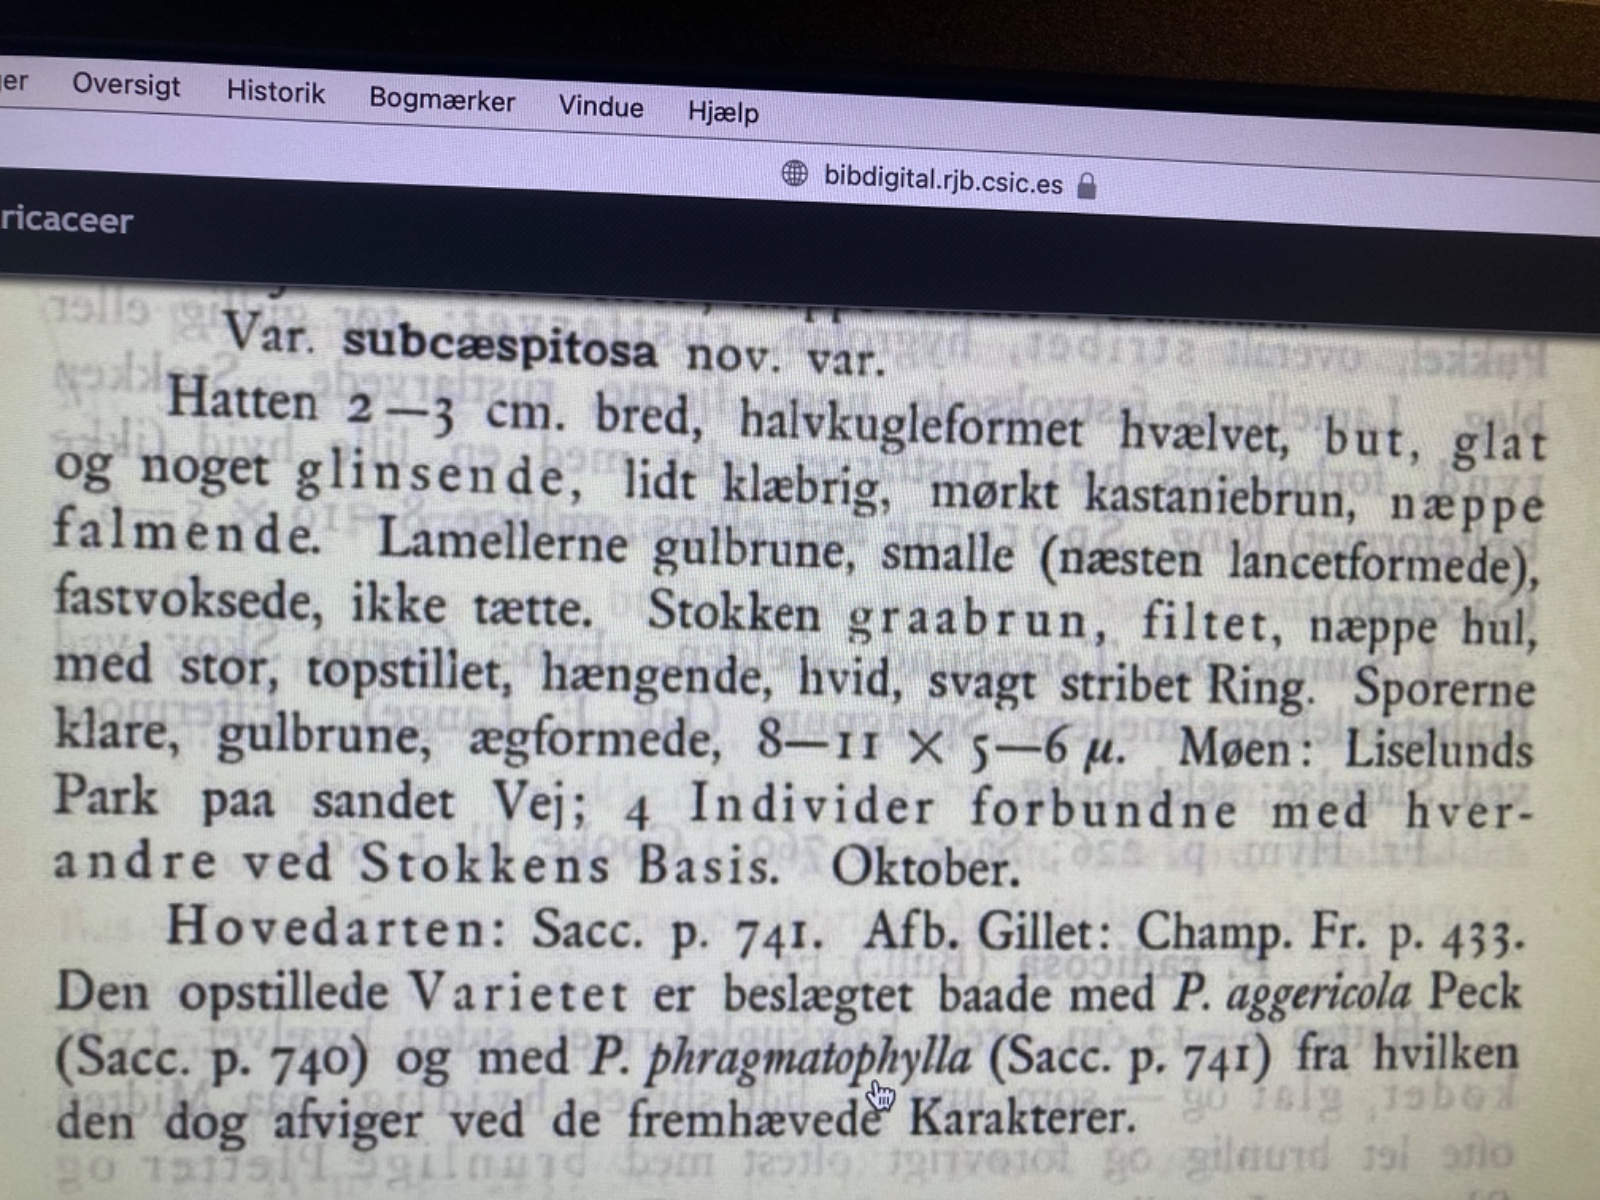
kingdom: Fungi
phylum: Basidiomycota
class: Agaricomycetes
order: Agaricales
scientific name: Agaricales
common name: champignonordenen
